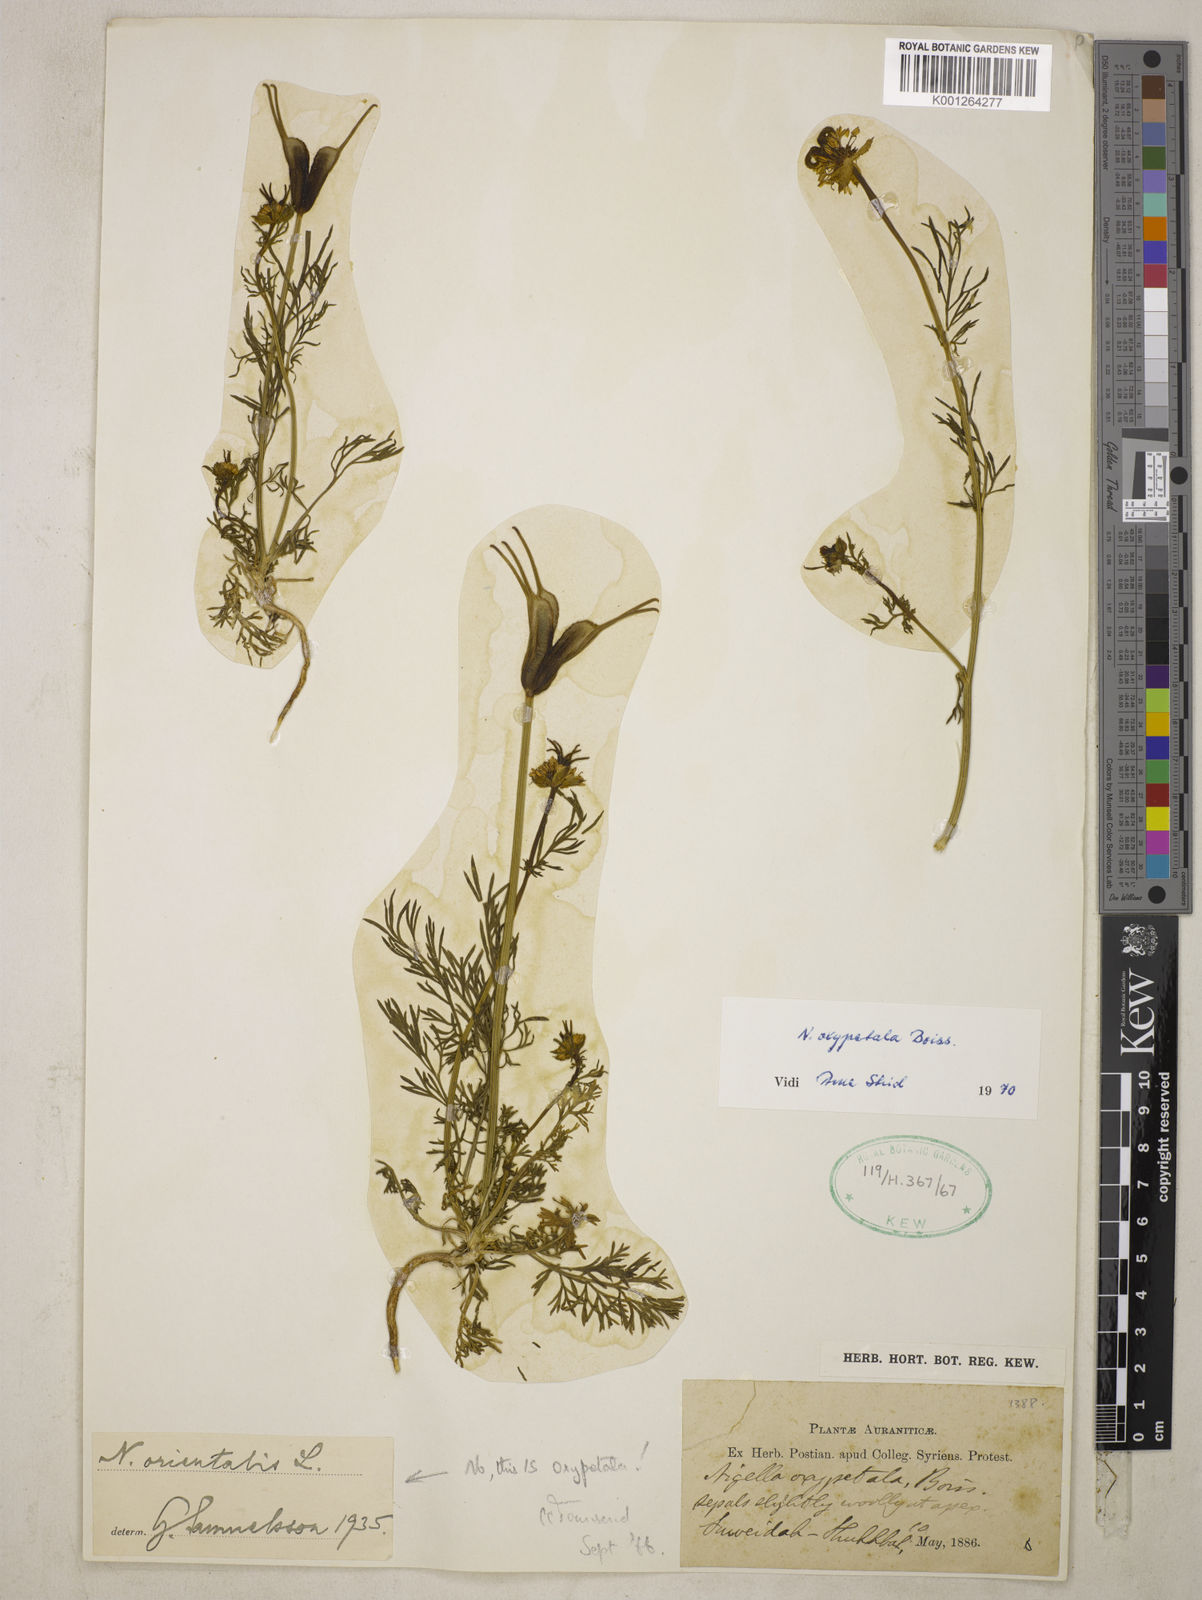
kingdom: Plantae
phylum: Tracheophyta
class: Magnoliopsida
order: Ranunculales
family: Ranunculaceae
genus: Nigella
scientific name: Nigella oxypetala
